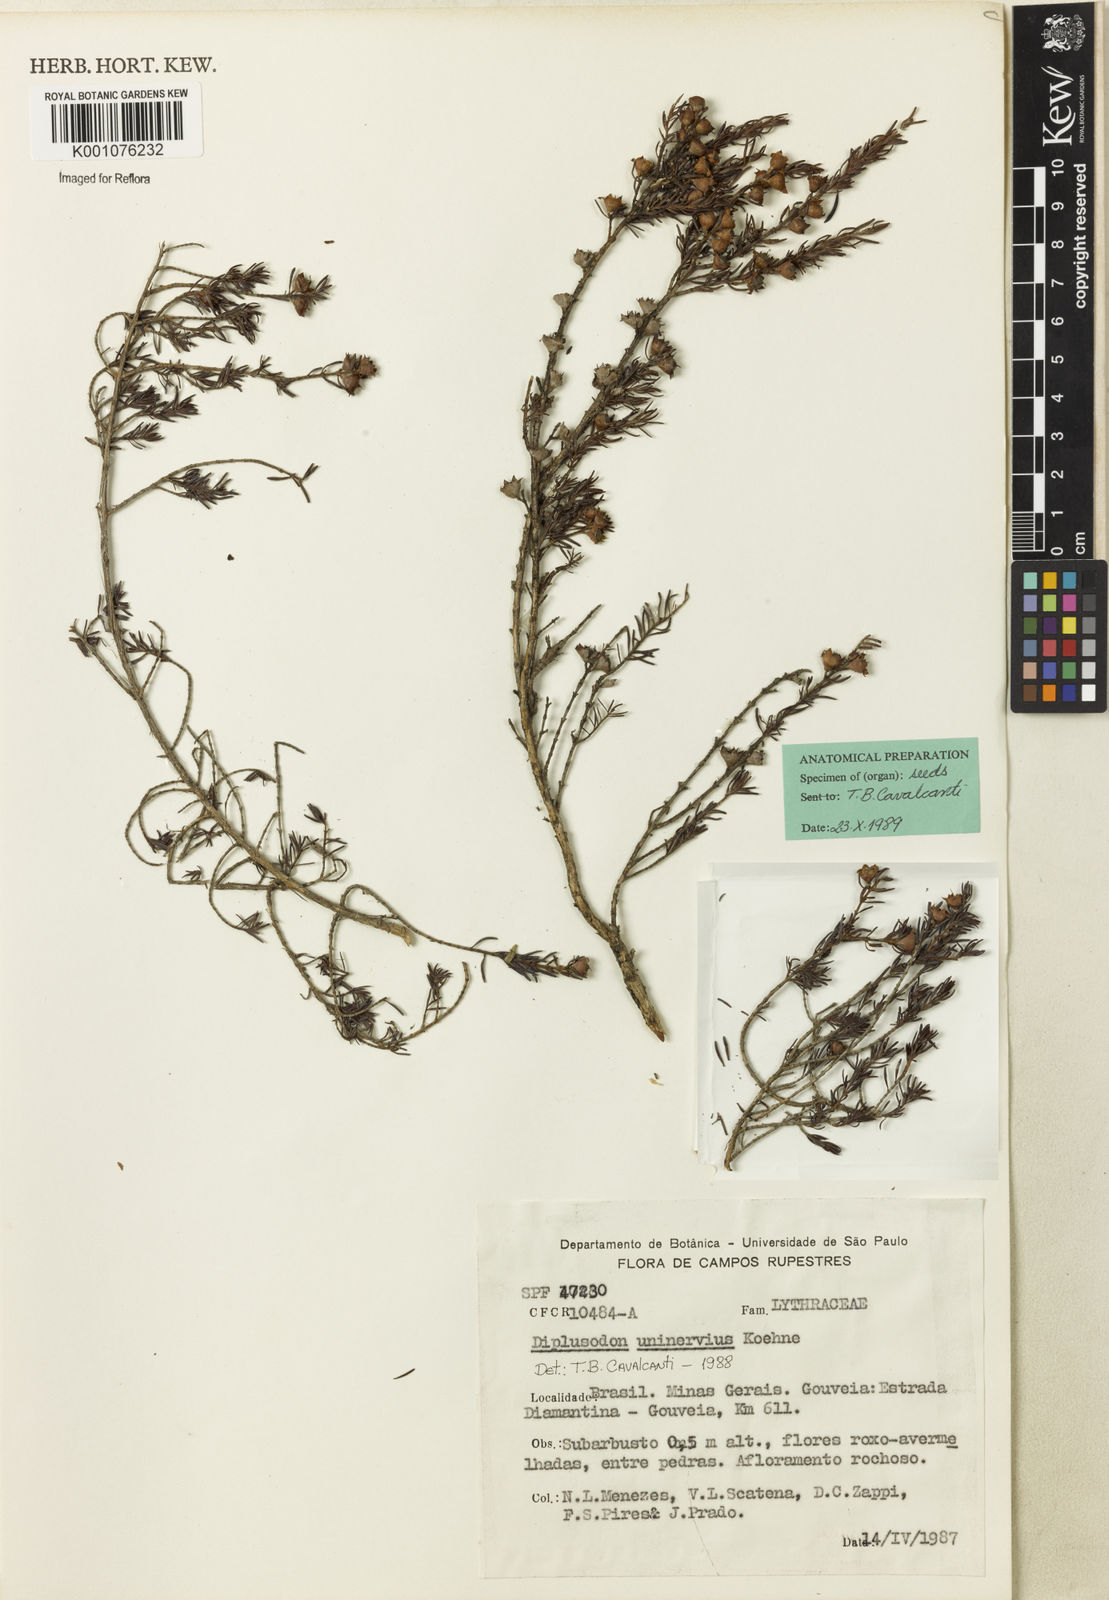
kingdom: Plantae
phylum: Tracheophyta
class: Magnoliopsida
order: Myrtales
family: Lythraceae
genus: Diplusodon
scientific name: Diplusodon uninervius
